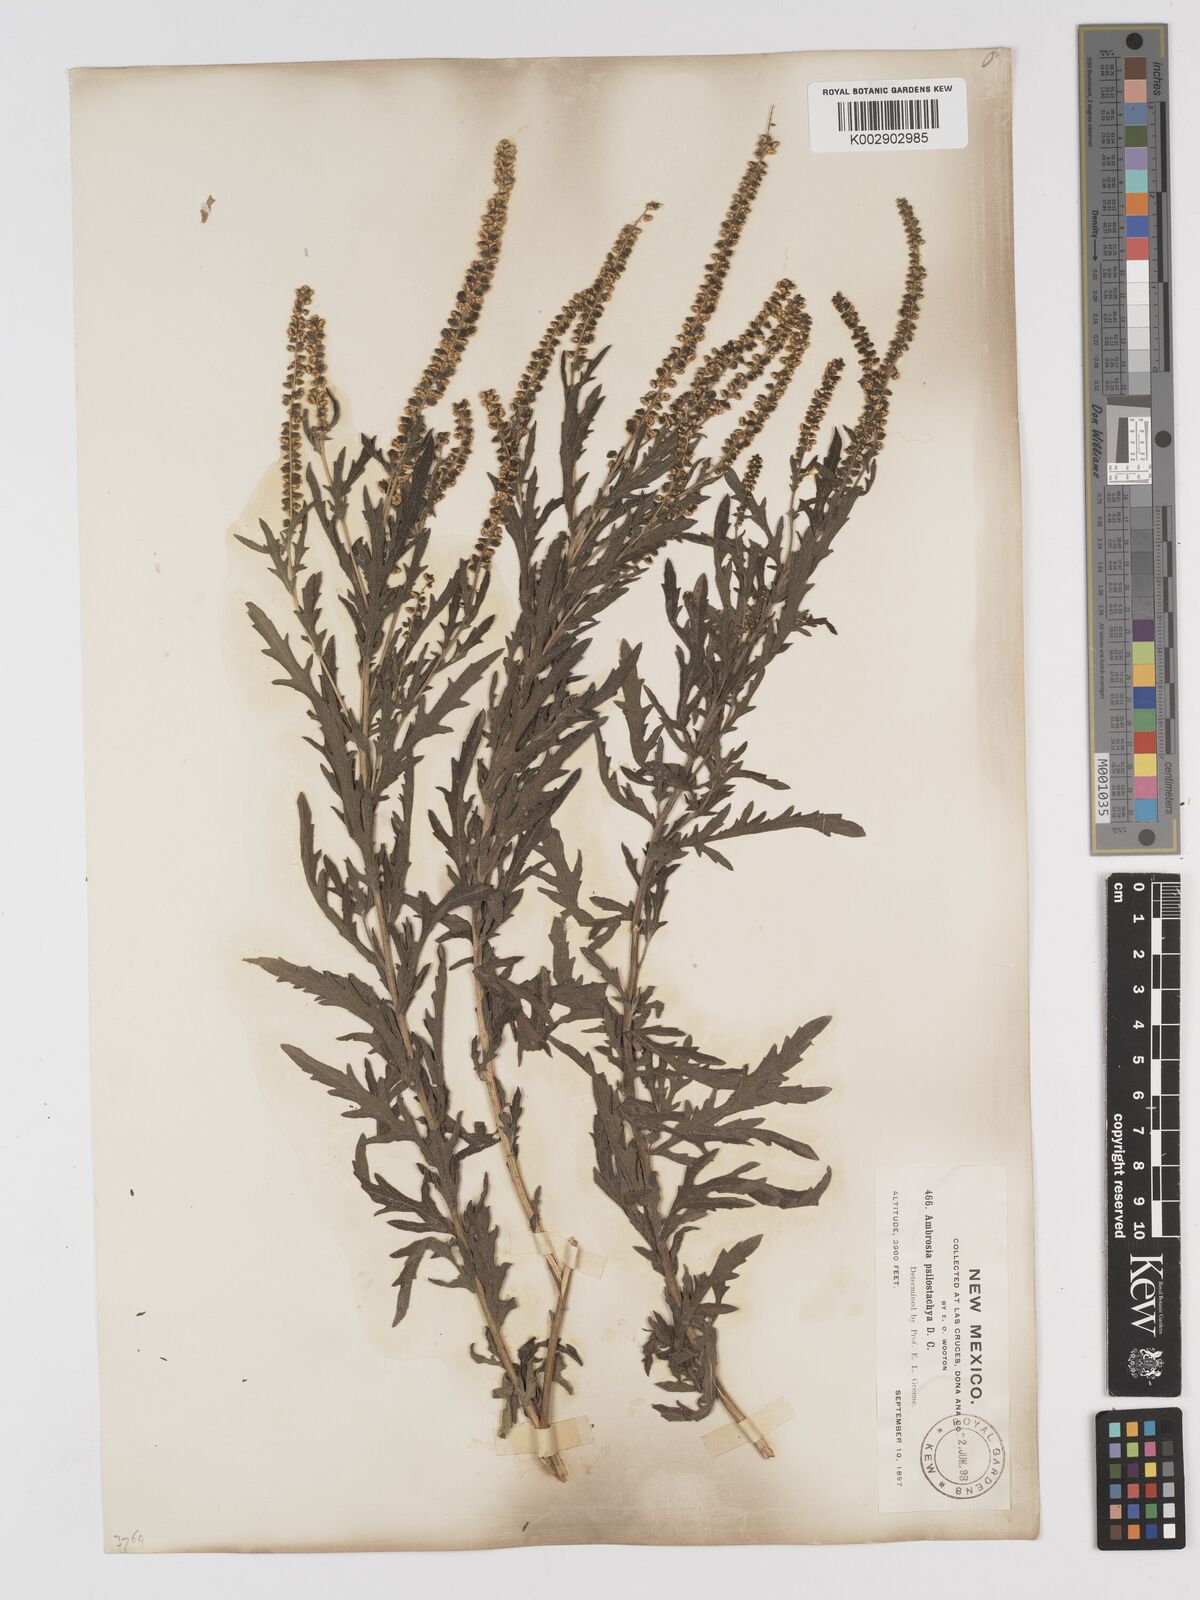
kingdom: Plantae
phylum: Tracheophyta
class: Magnoliopsida
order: Asterales
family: Asteraceae
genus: Ambrosia
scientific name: Ambrosia psilostachya
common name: Perennial ragweed
